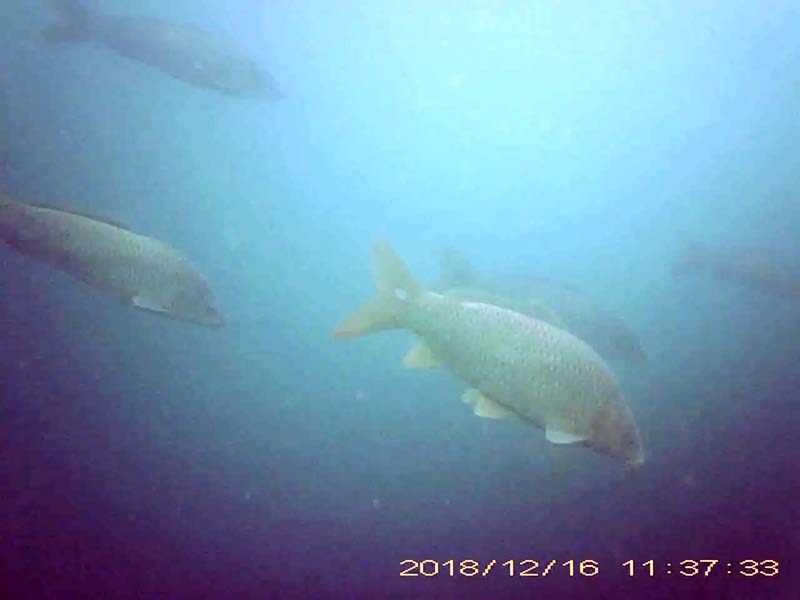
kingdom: Animalia
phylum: Chordata
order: Cypriniformes
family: Cyprinidae
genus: Cyprinus
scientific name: Cyprinus carpio
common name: コイ
